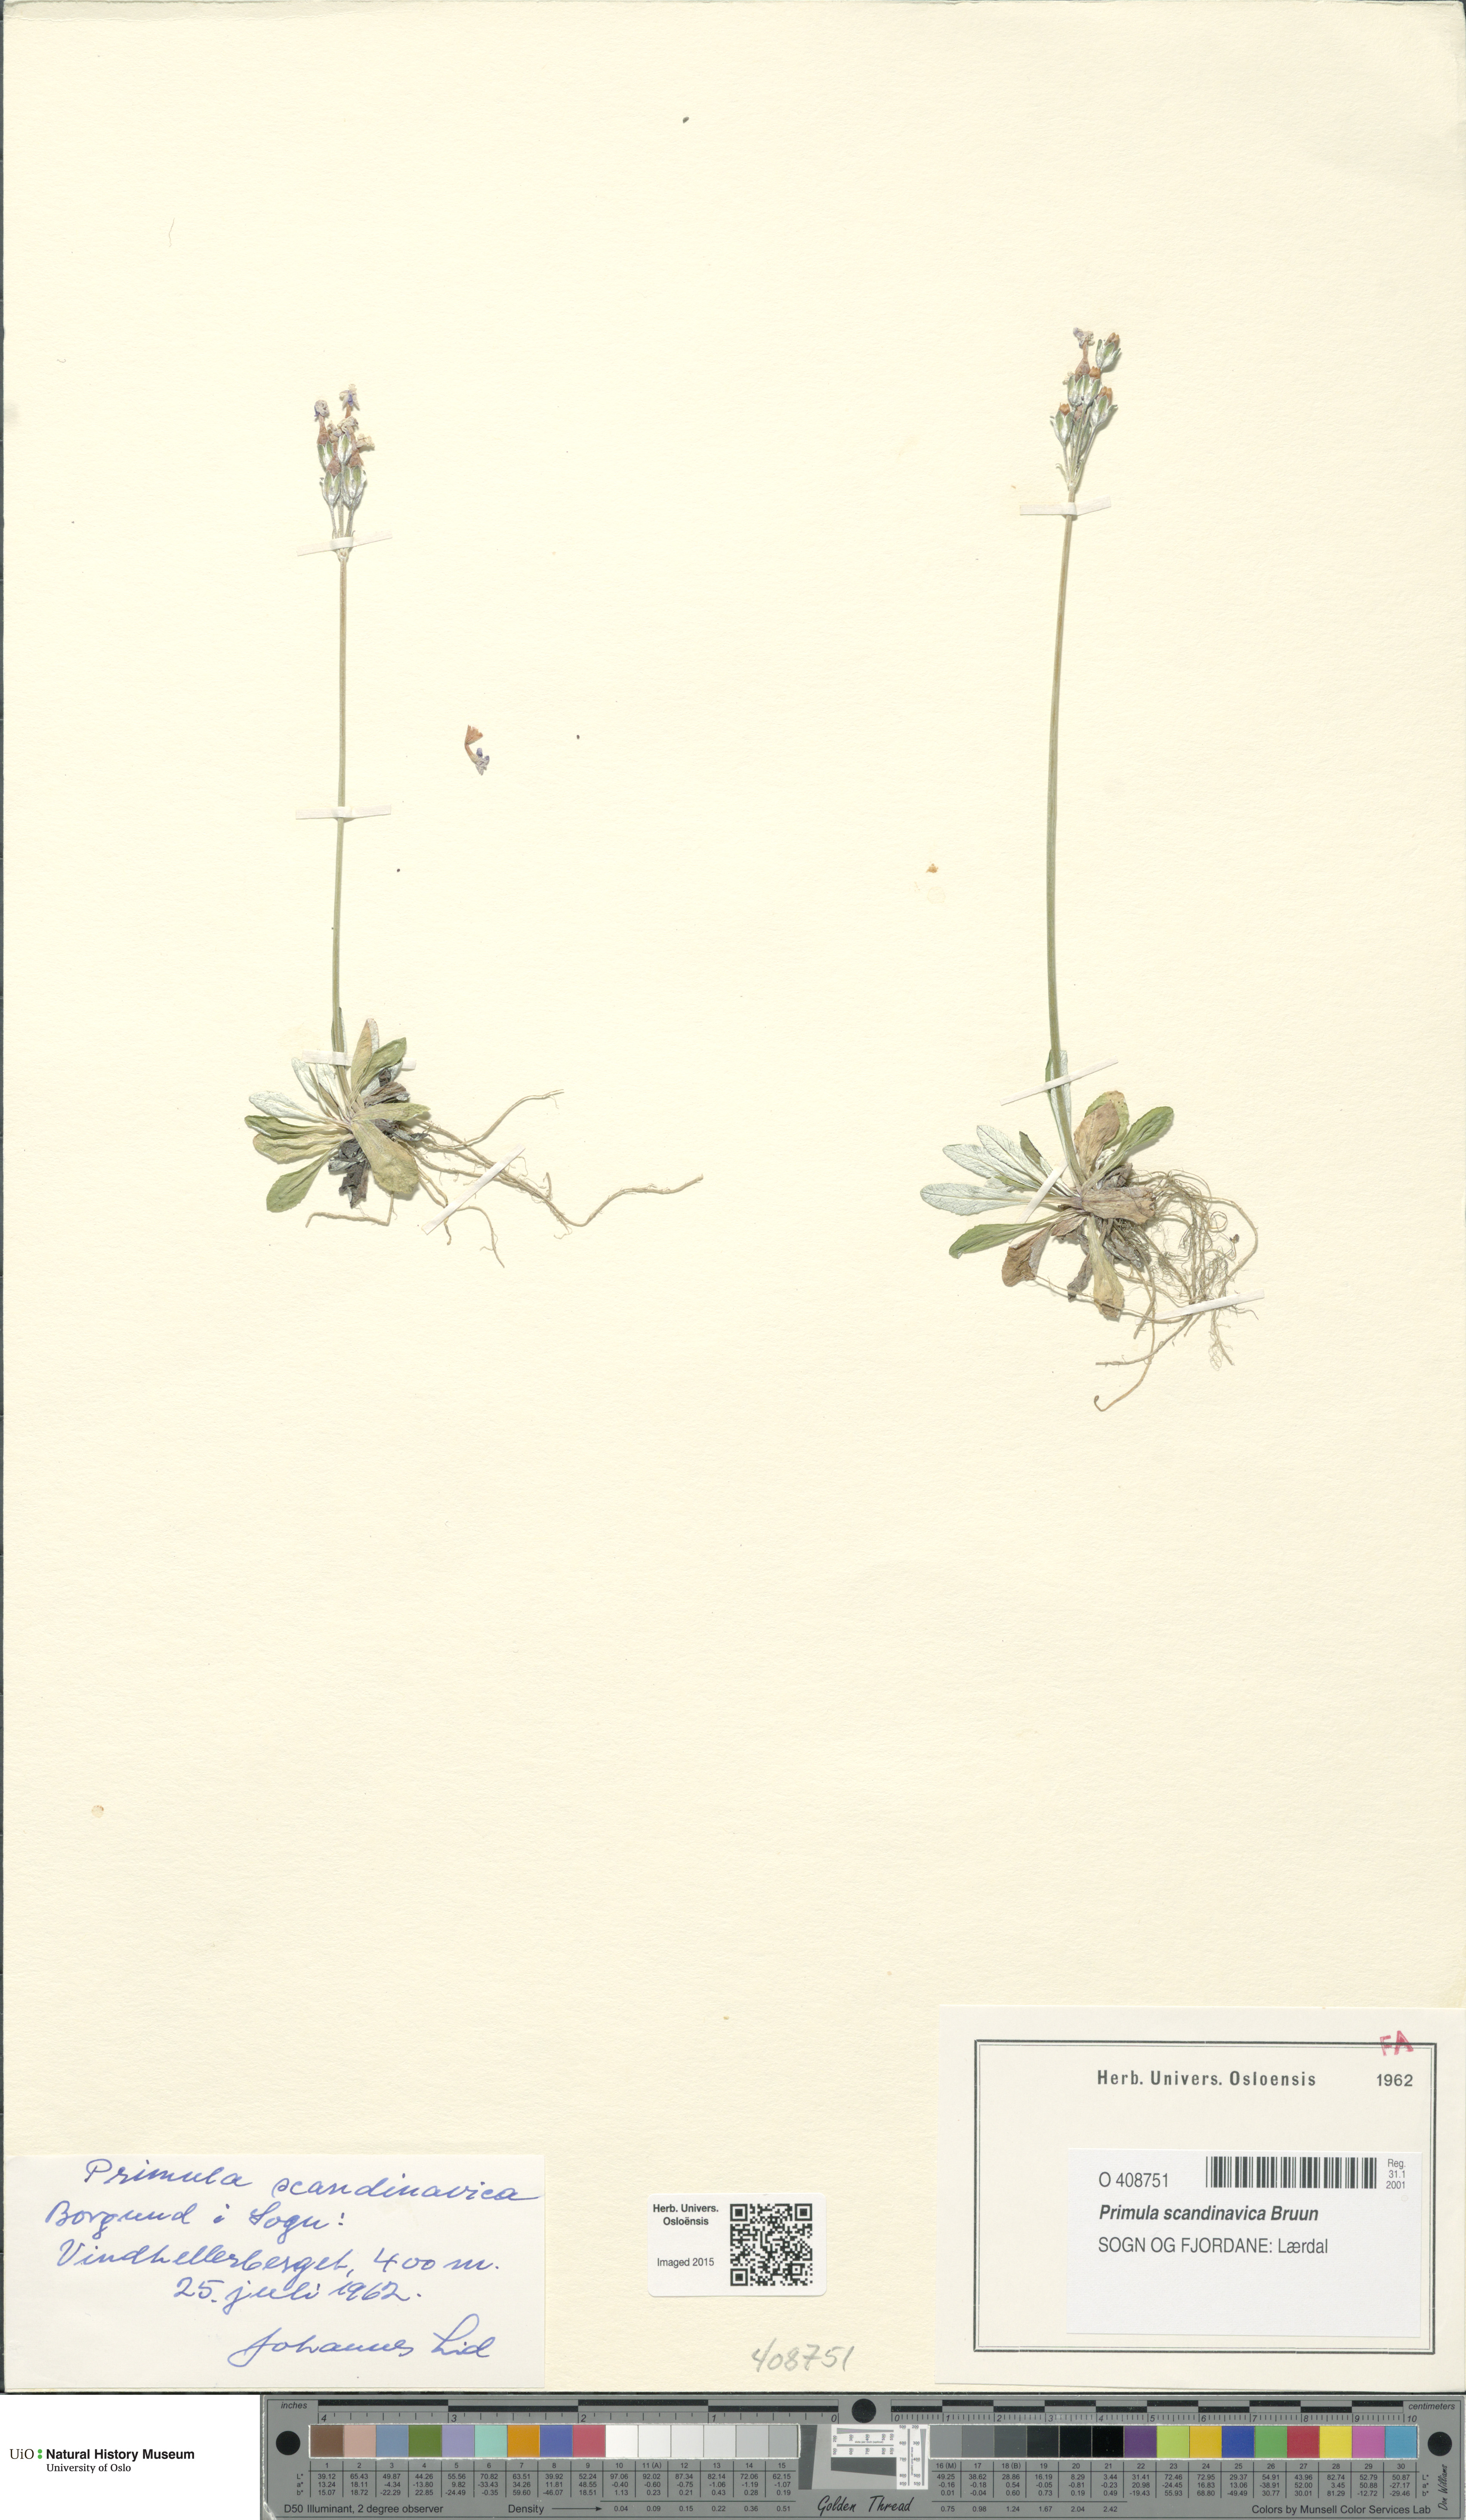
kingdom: Plantae
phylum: Tracheophyta
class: Magnoliopsida
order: Ericales
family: Primulaceae
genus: Primula
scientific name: Primula scandinavica
